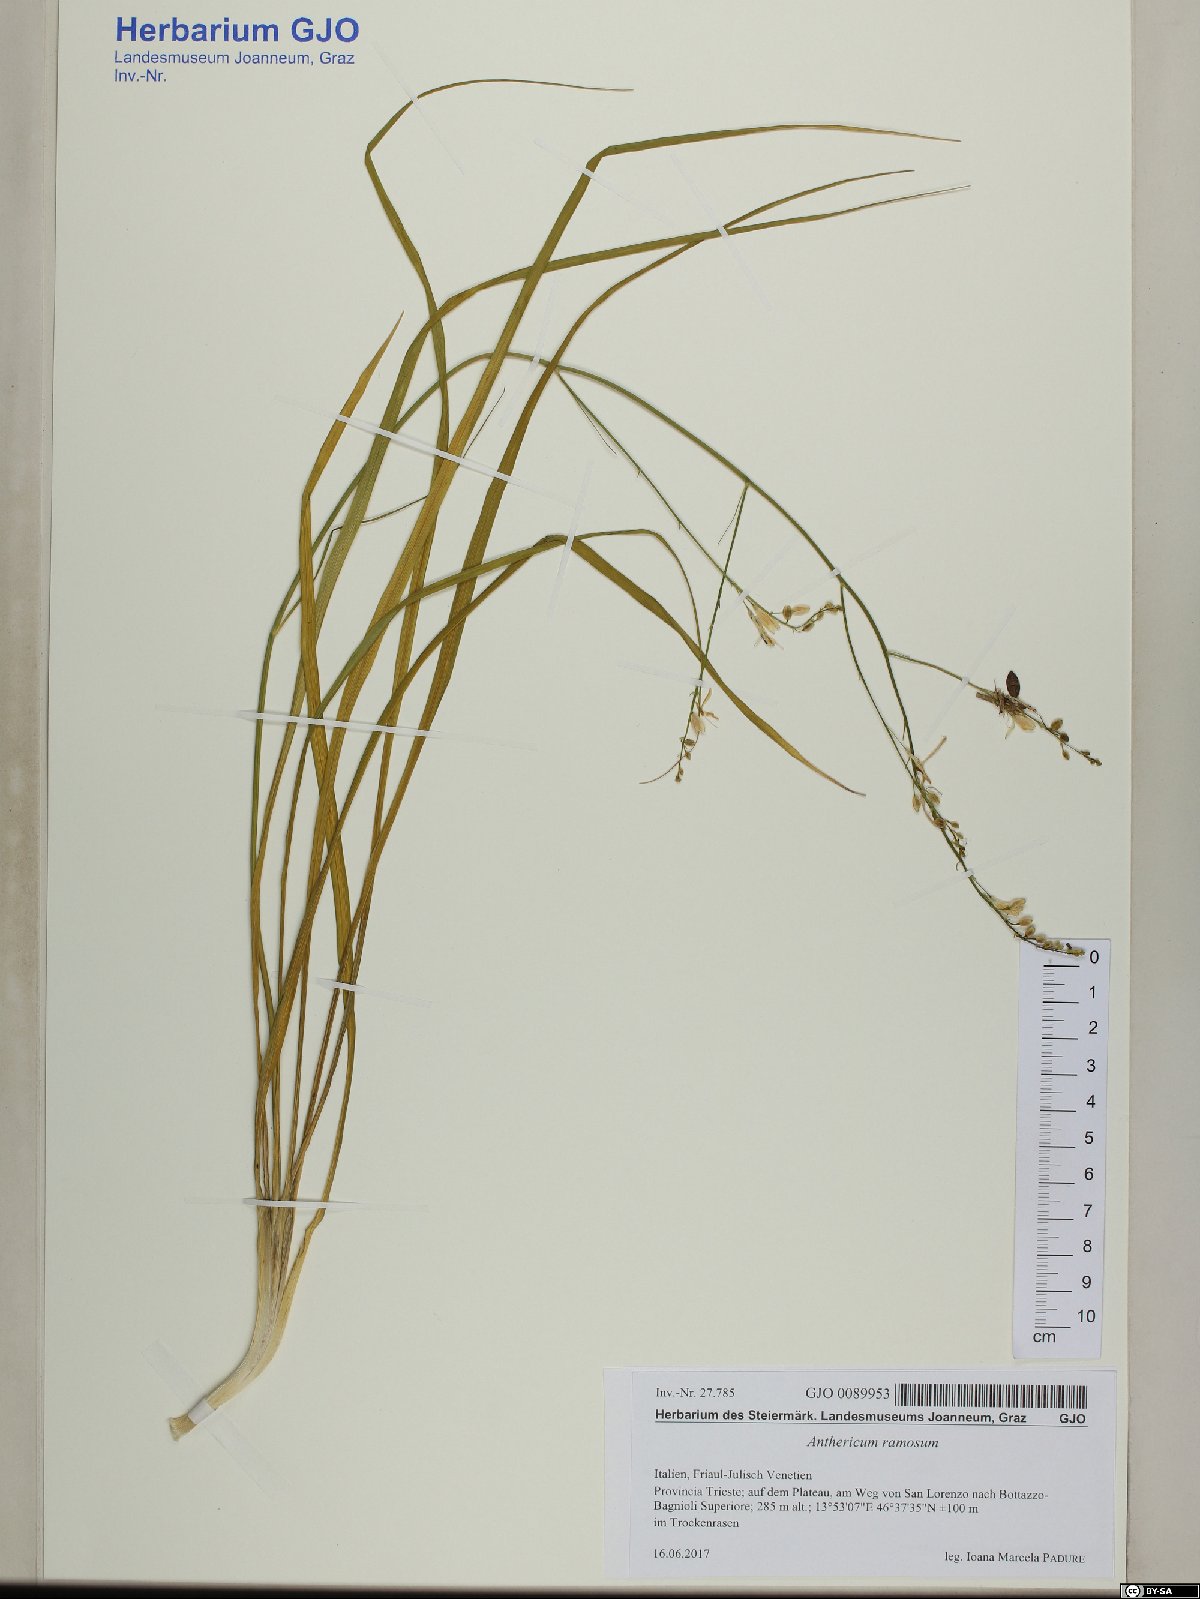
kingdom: Plantae
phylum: Tracheophyta
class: Liliopsida
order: Asparagales
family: Asparagaceae
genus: Anthericum
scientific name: Anthericum ramosum
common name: Branched st. bernard's-lily
